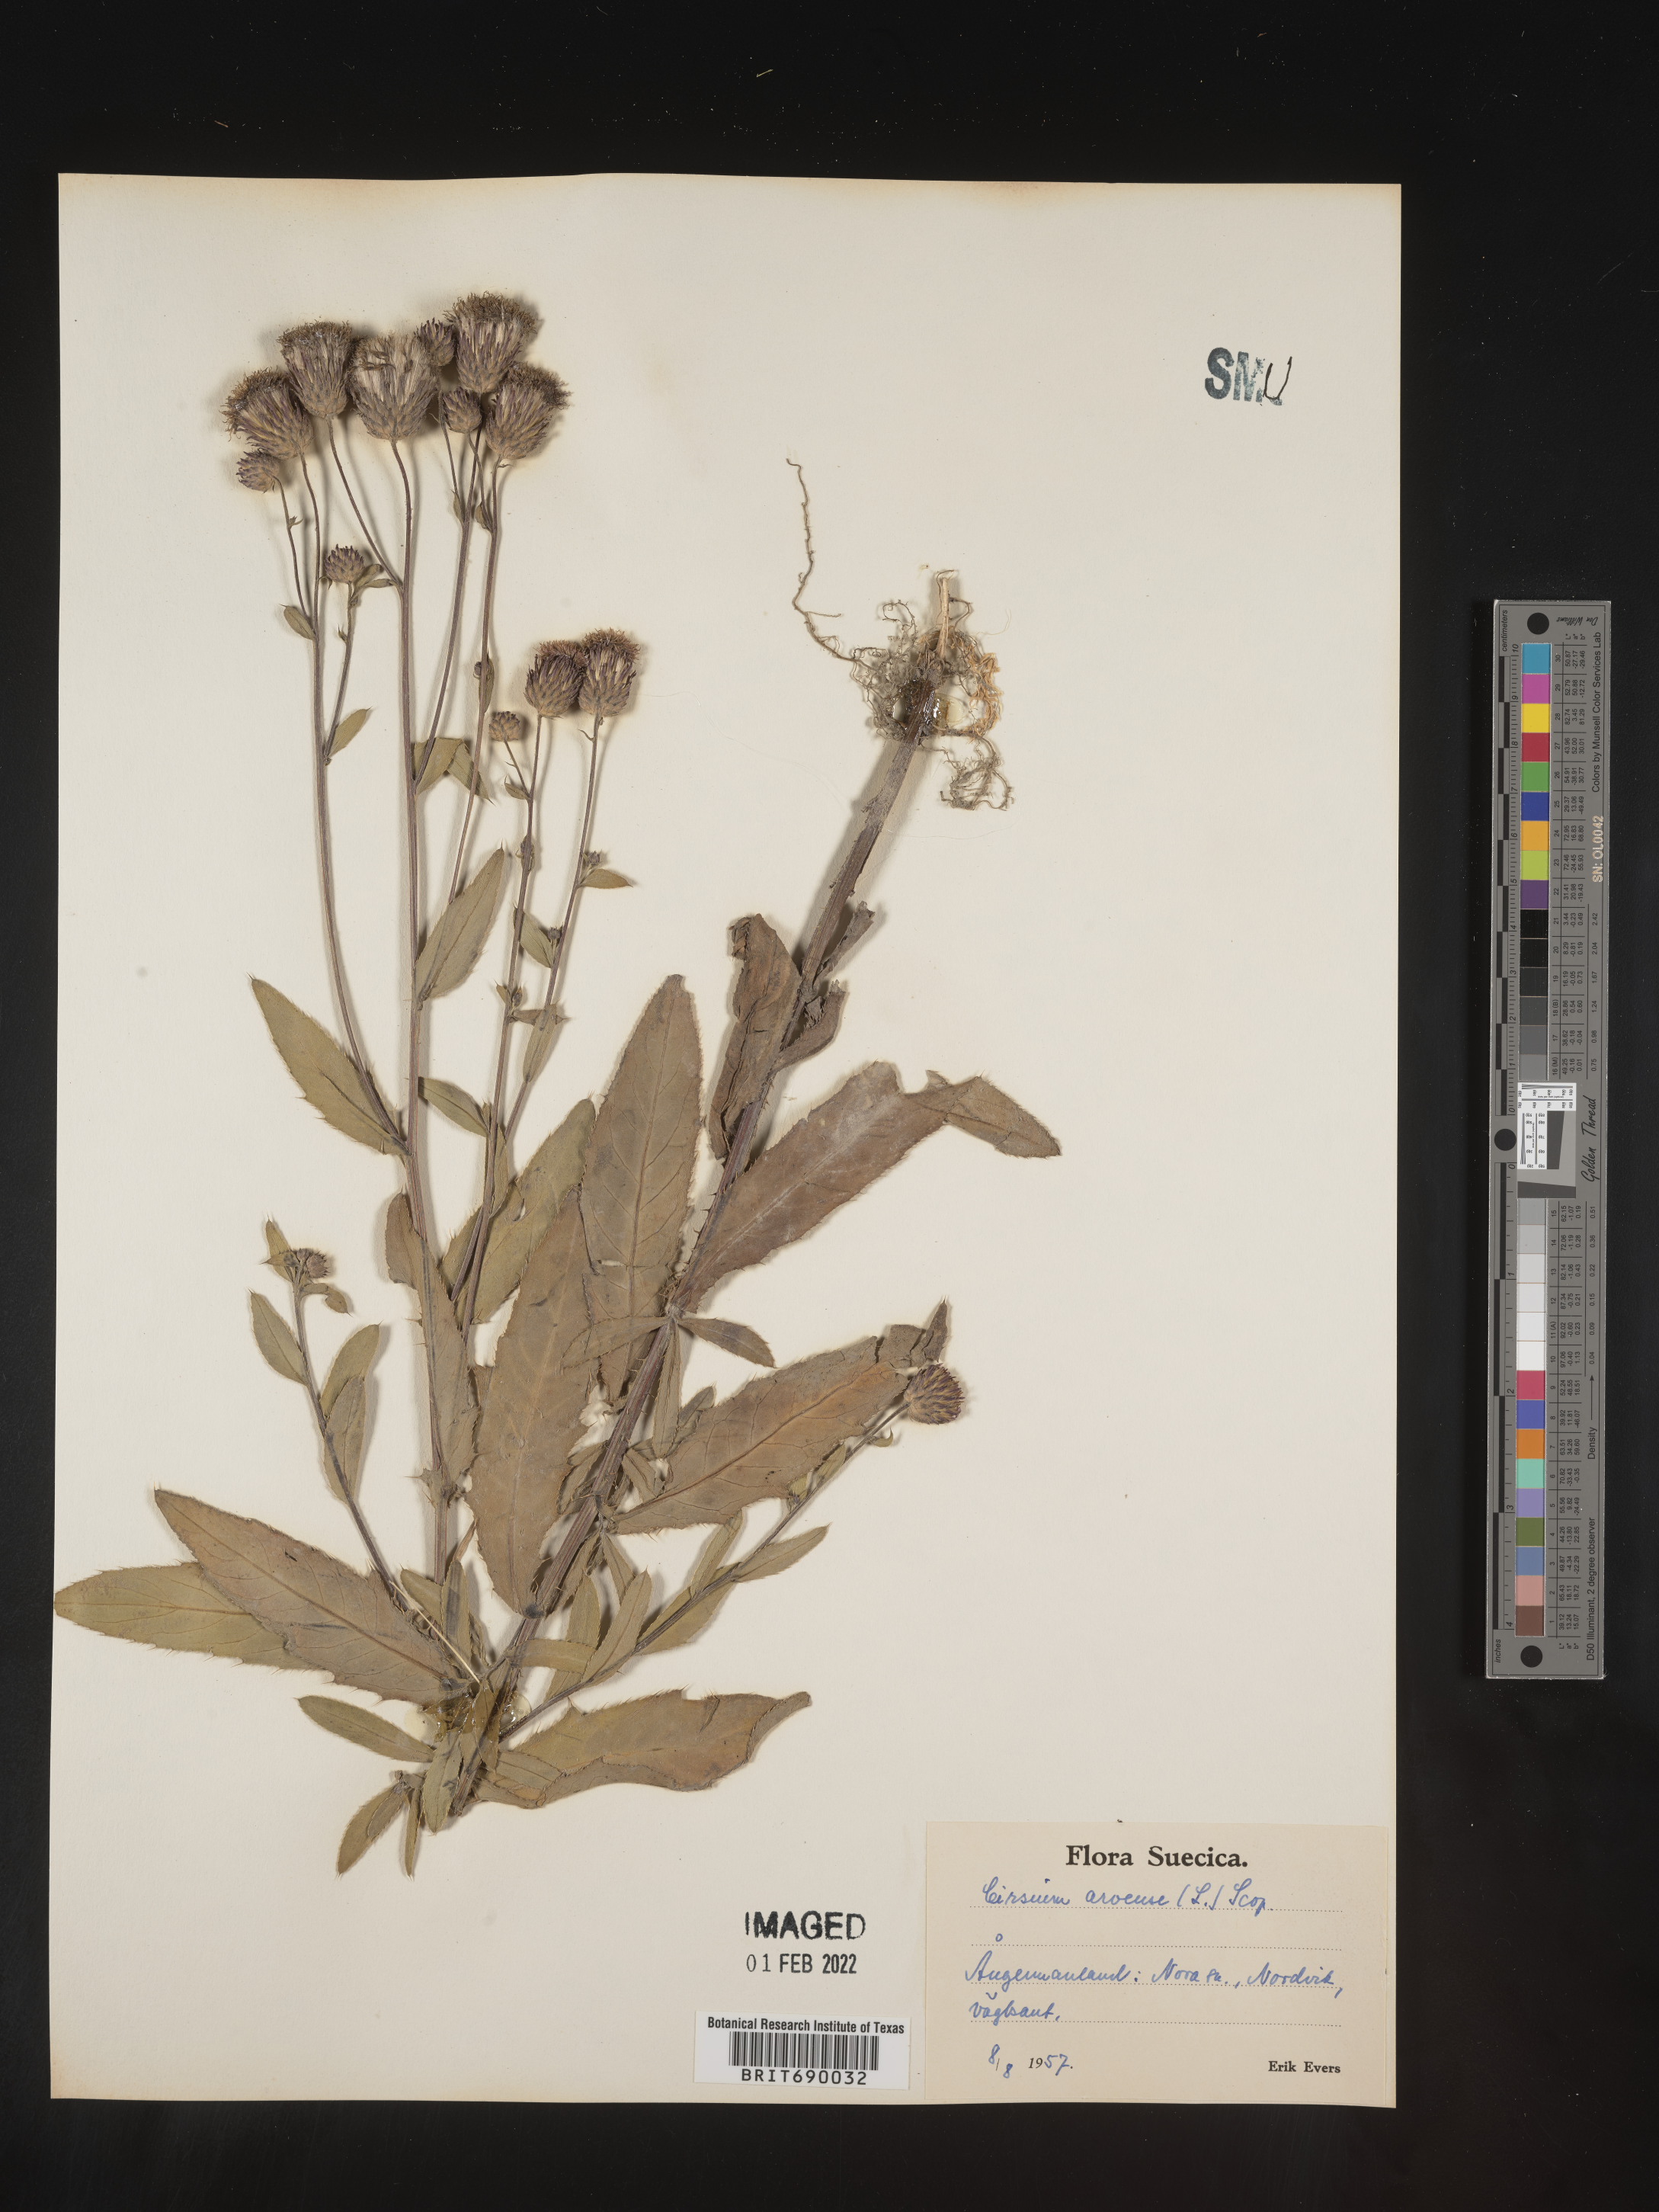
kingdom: Plantae
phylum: Tracheophyta
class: Magnoliopsida
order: Asterales
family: Asteraceae
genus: Cirsium
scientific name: Cirsium
